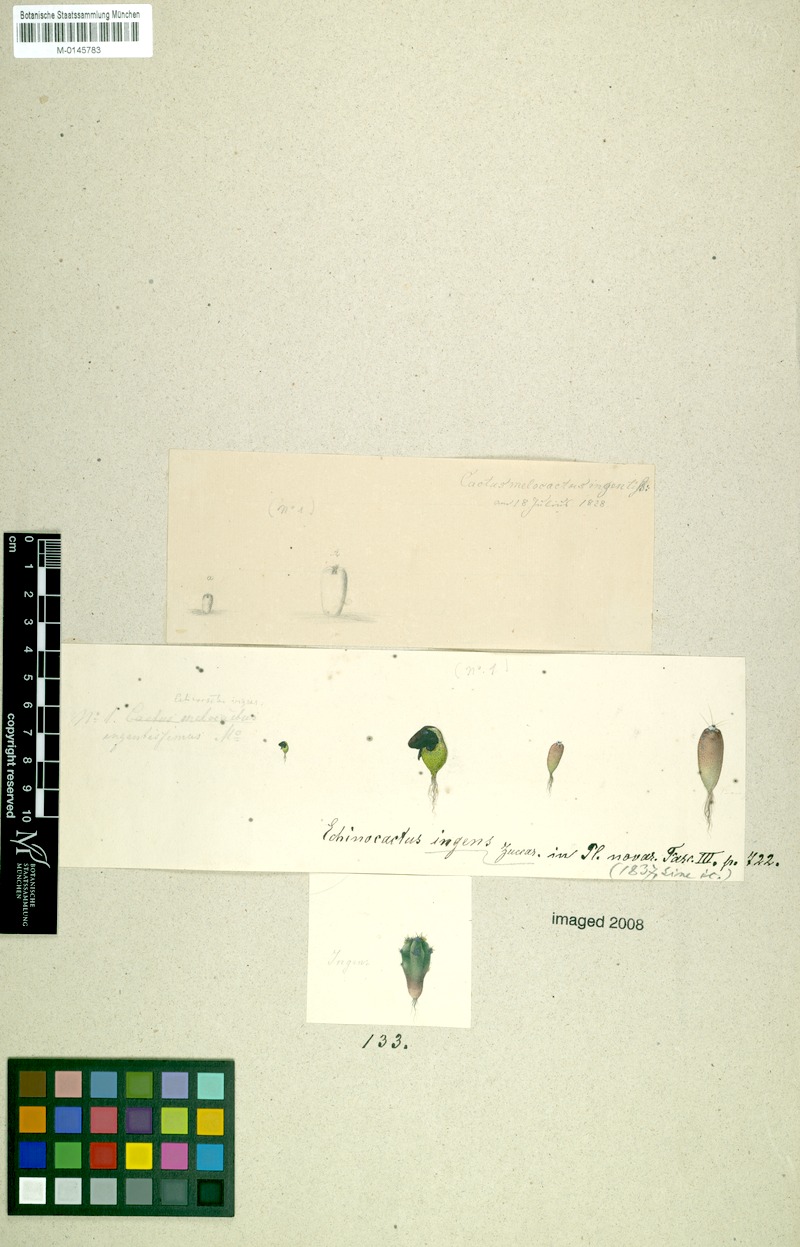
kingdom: Plantae
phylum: Tracheophyta
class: Magnoliopsida
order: Caryophyllales
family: Cactaceae
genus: Echinocactus
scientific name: Echinocactus platyacanthus
